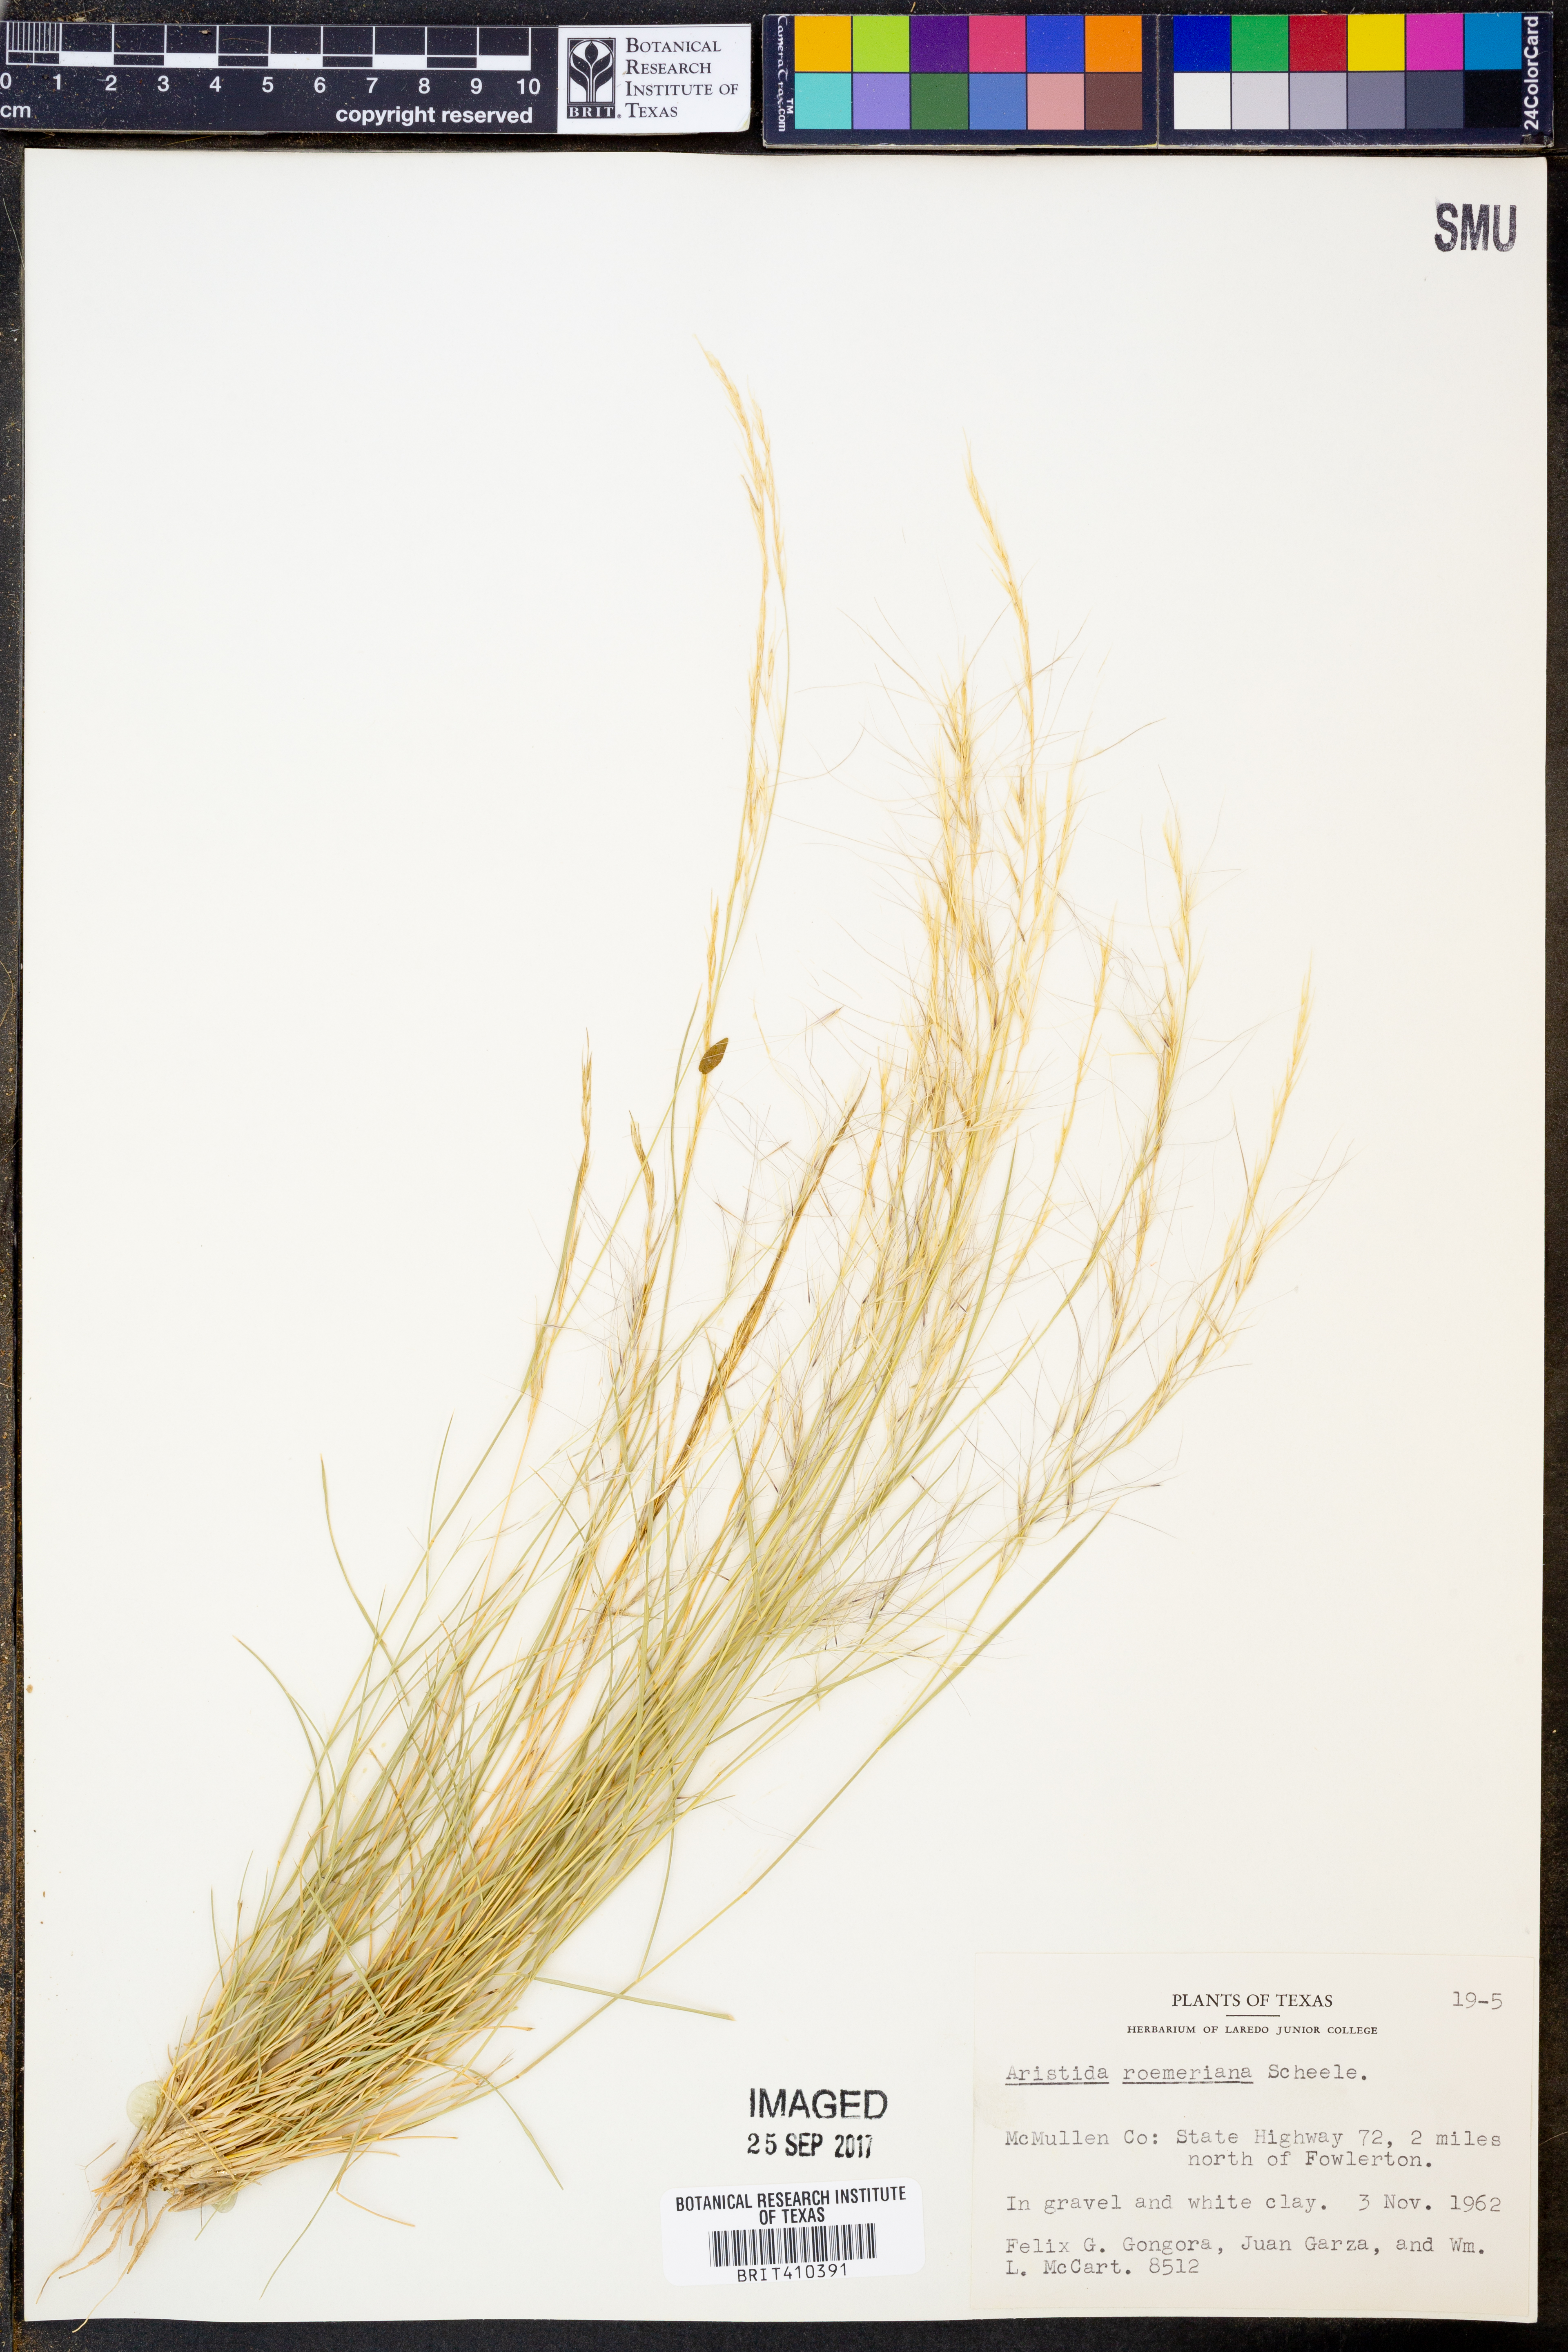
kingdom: Plantae
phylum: Tracheophyta
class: Liliopsida
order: Poales
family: Poaceae
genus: Aristida
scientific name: Aristida purpurea
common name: Purple threeawn
